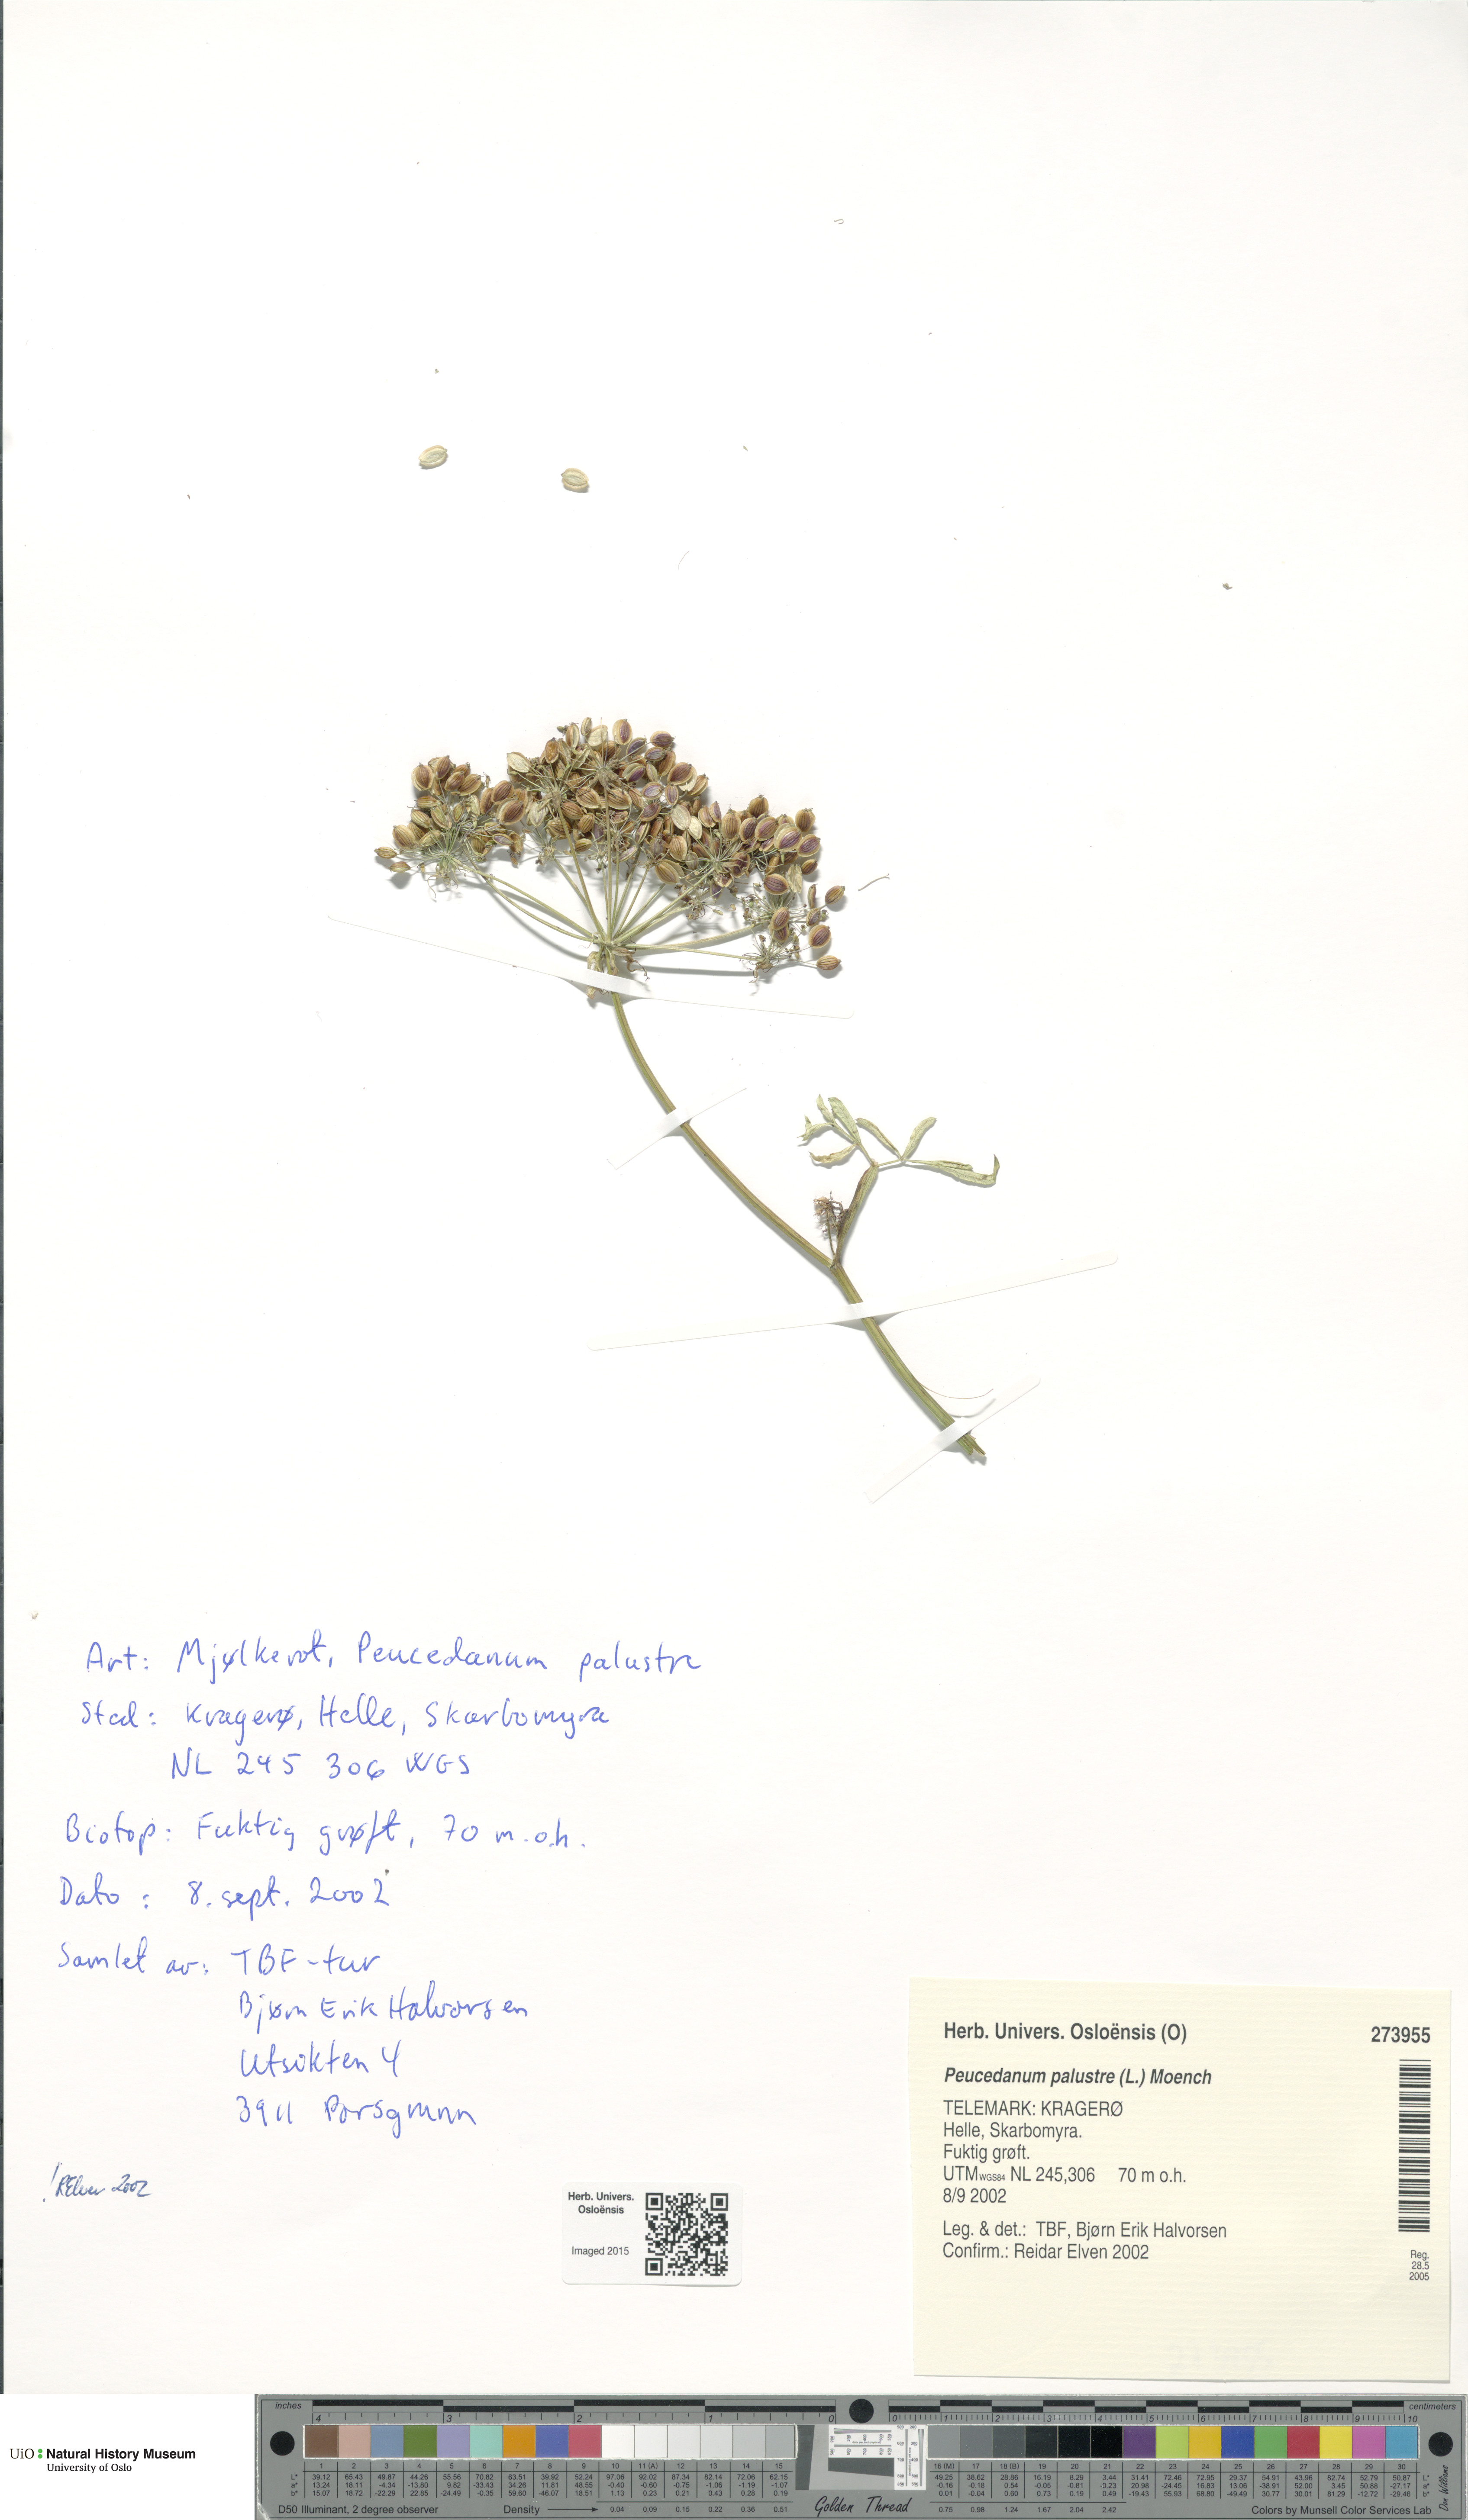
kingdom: Plantae
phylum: Tracheophyta
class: Magnoliopsida
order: Apiales
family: Apiaceae
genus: Thysselinum
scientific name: Thysselinum palustre
